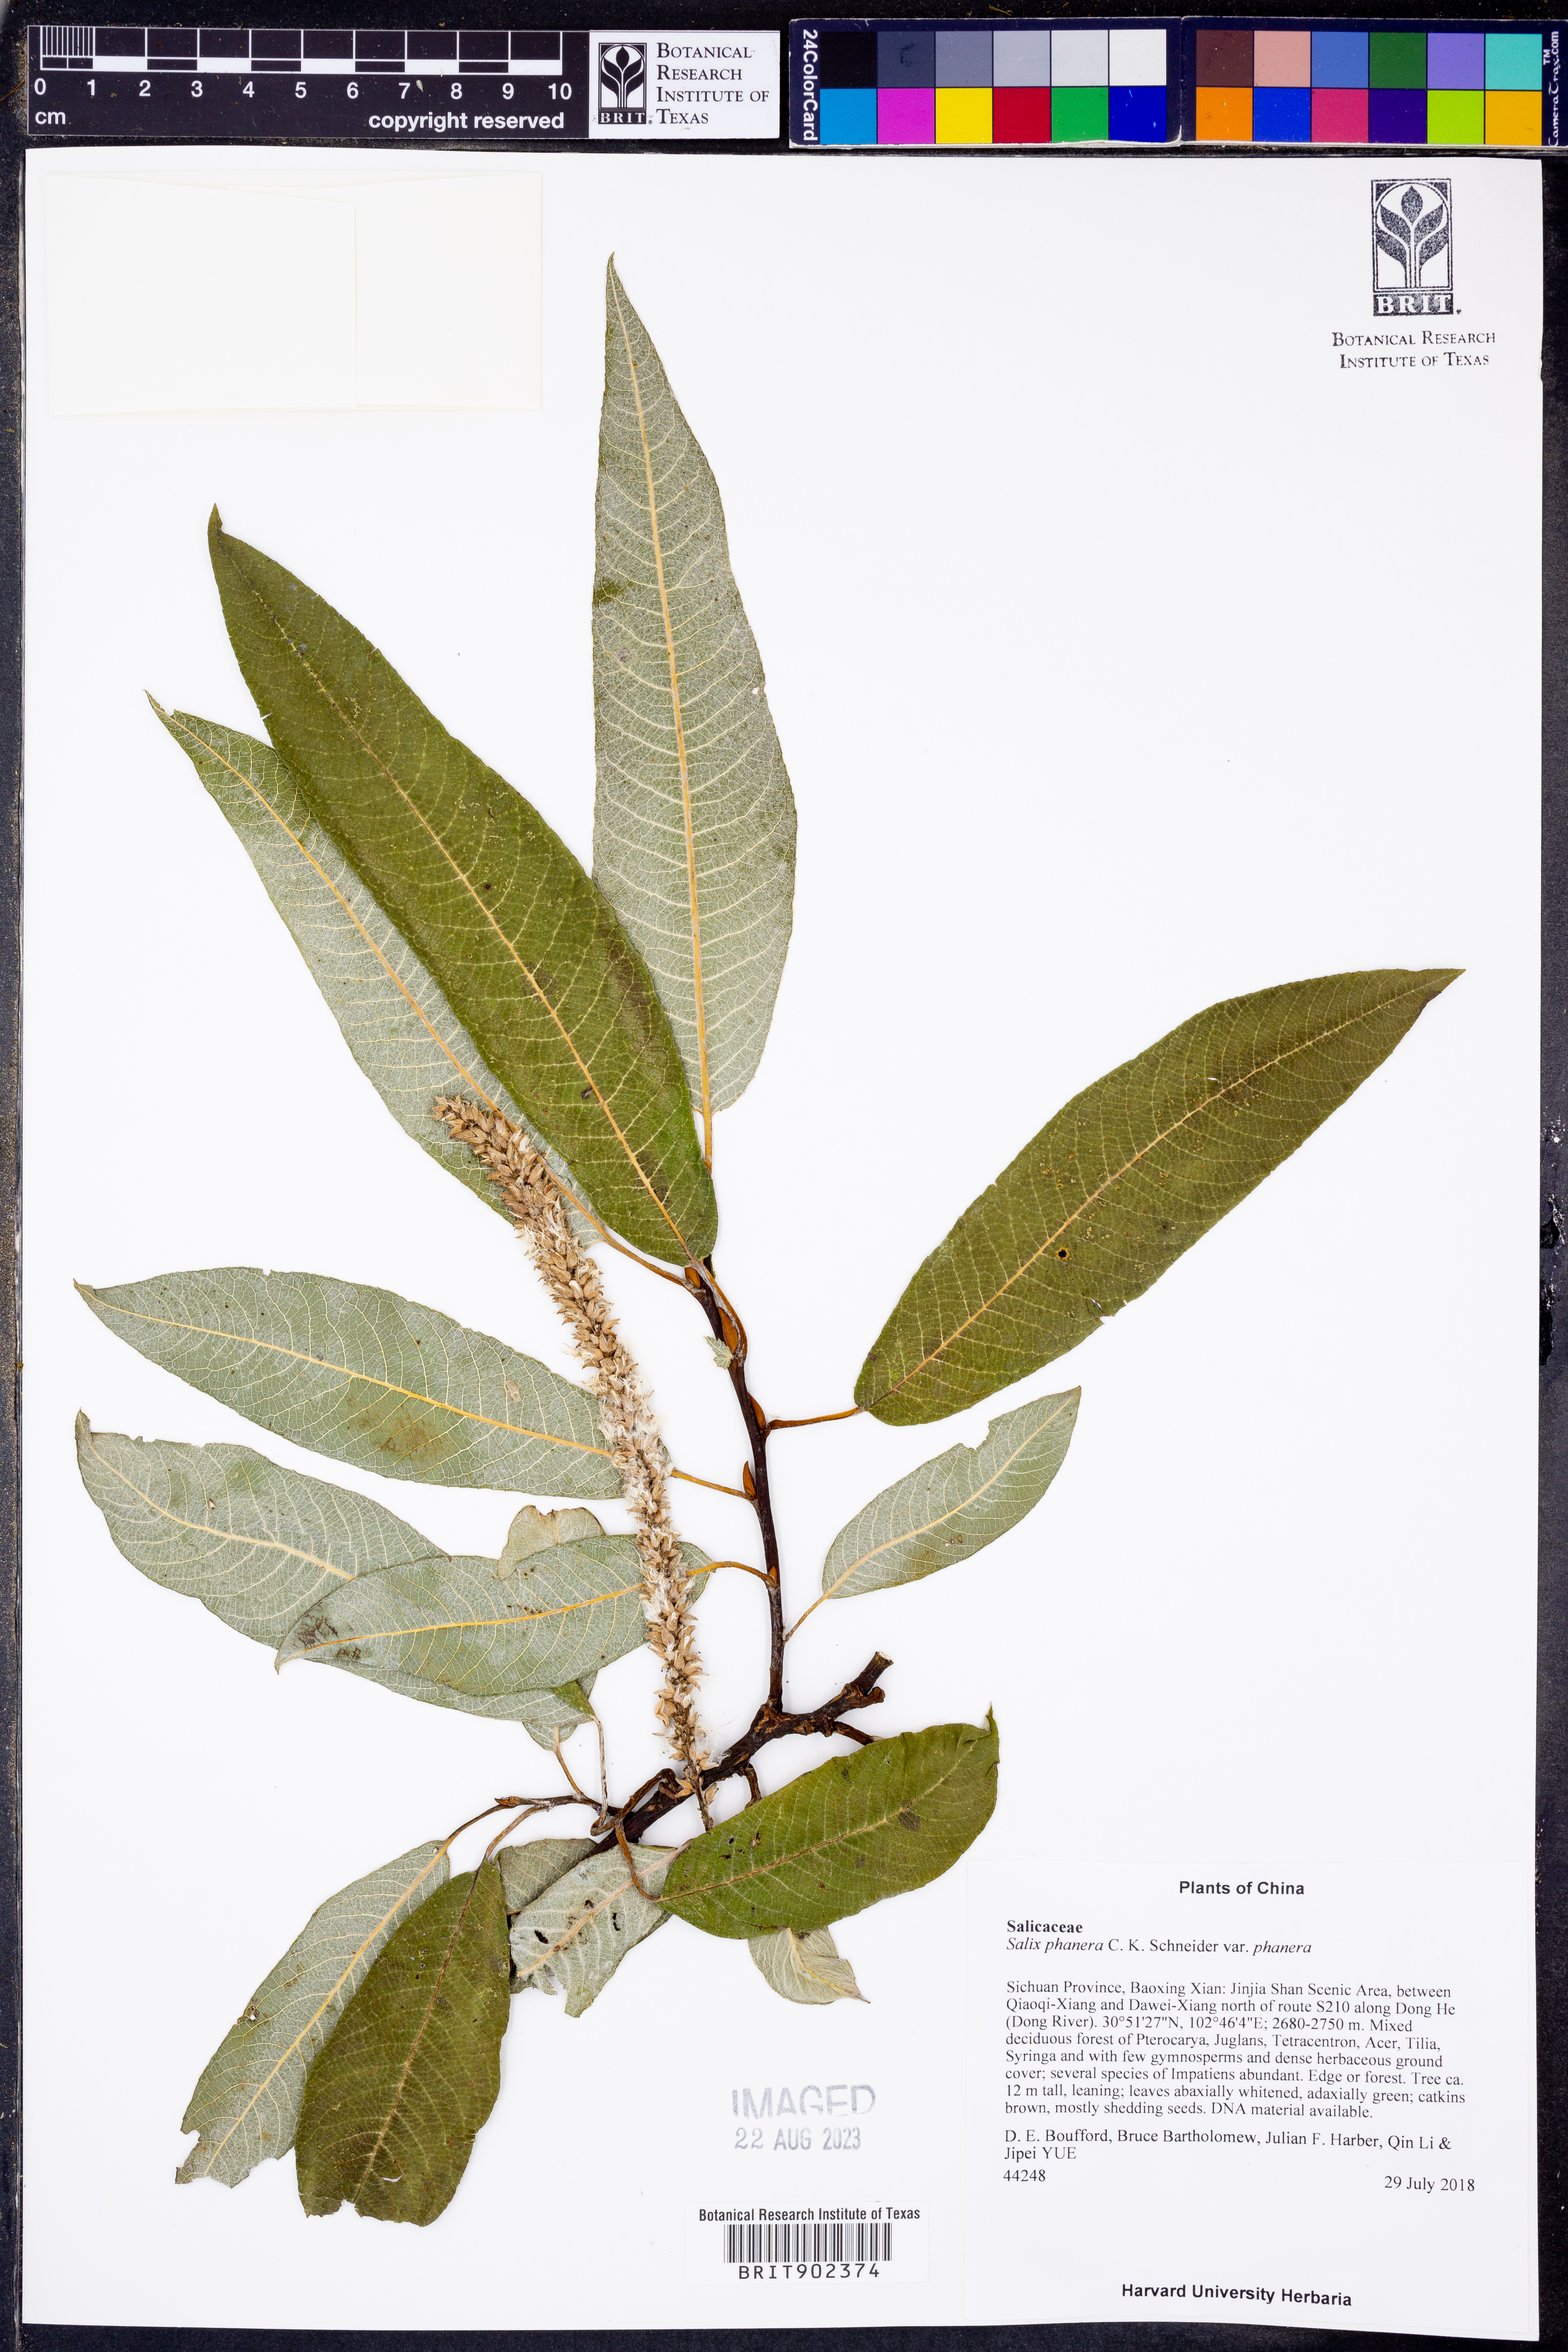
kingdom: Plantae
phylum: Tracheophyta
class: Magnoliopsida
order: Malpighiales
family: Salicaceae
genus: Salix
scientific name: Salix
